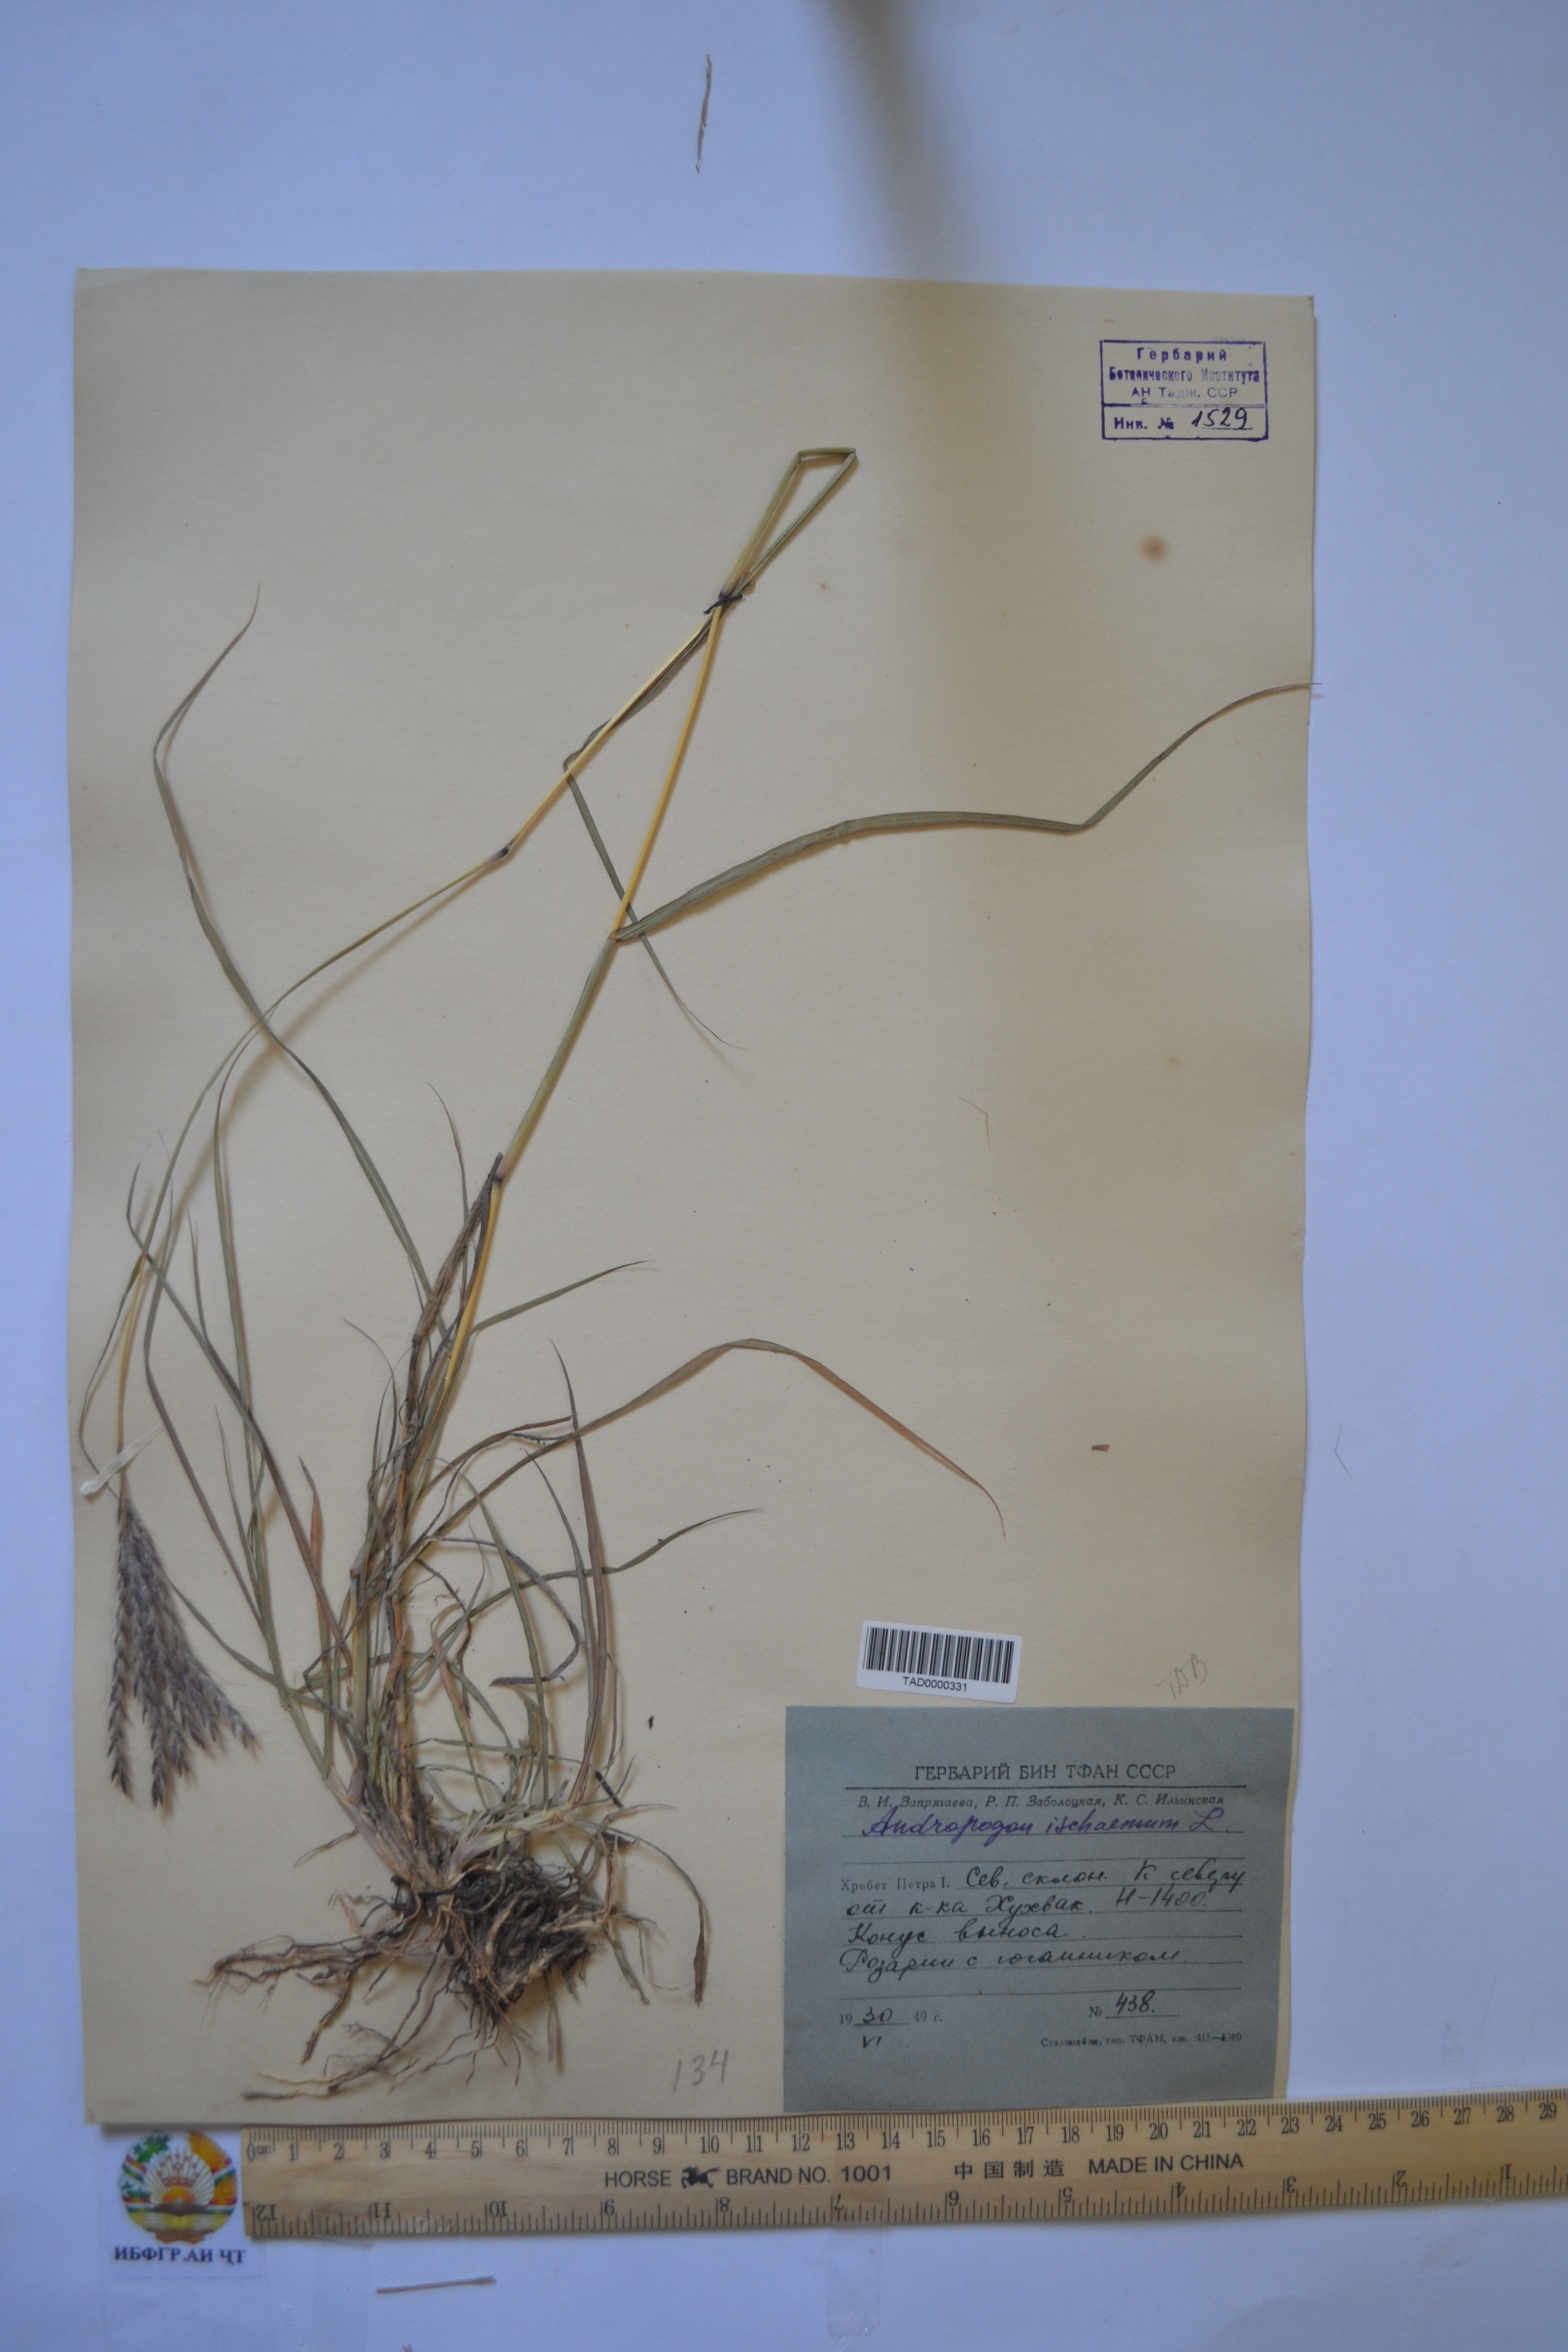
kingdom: Plantae
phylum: Tracheophyta
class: Liliopsida
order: Poales
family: Poaceae
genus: Andropogon
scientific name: Andropogon ischaemum
